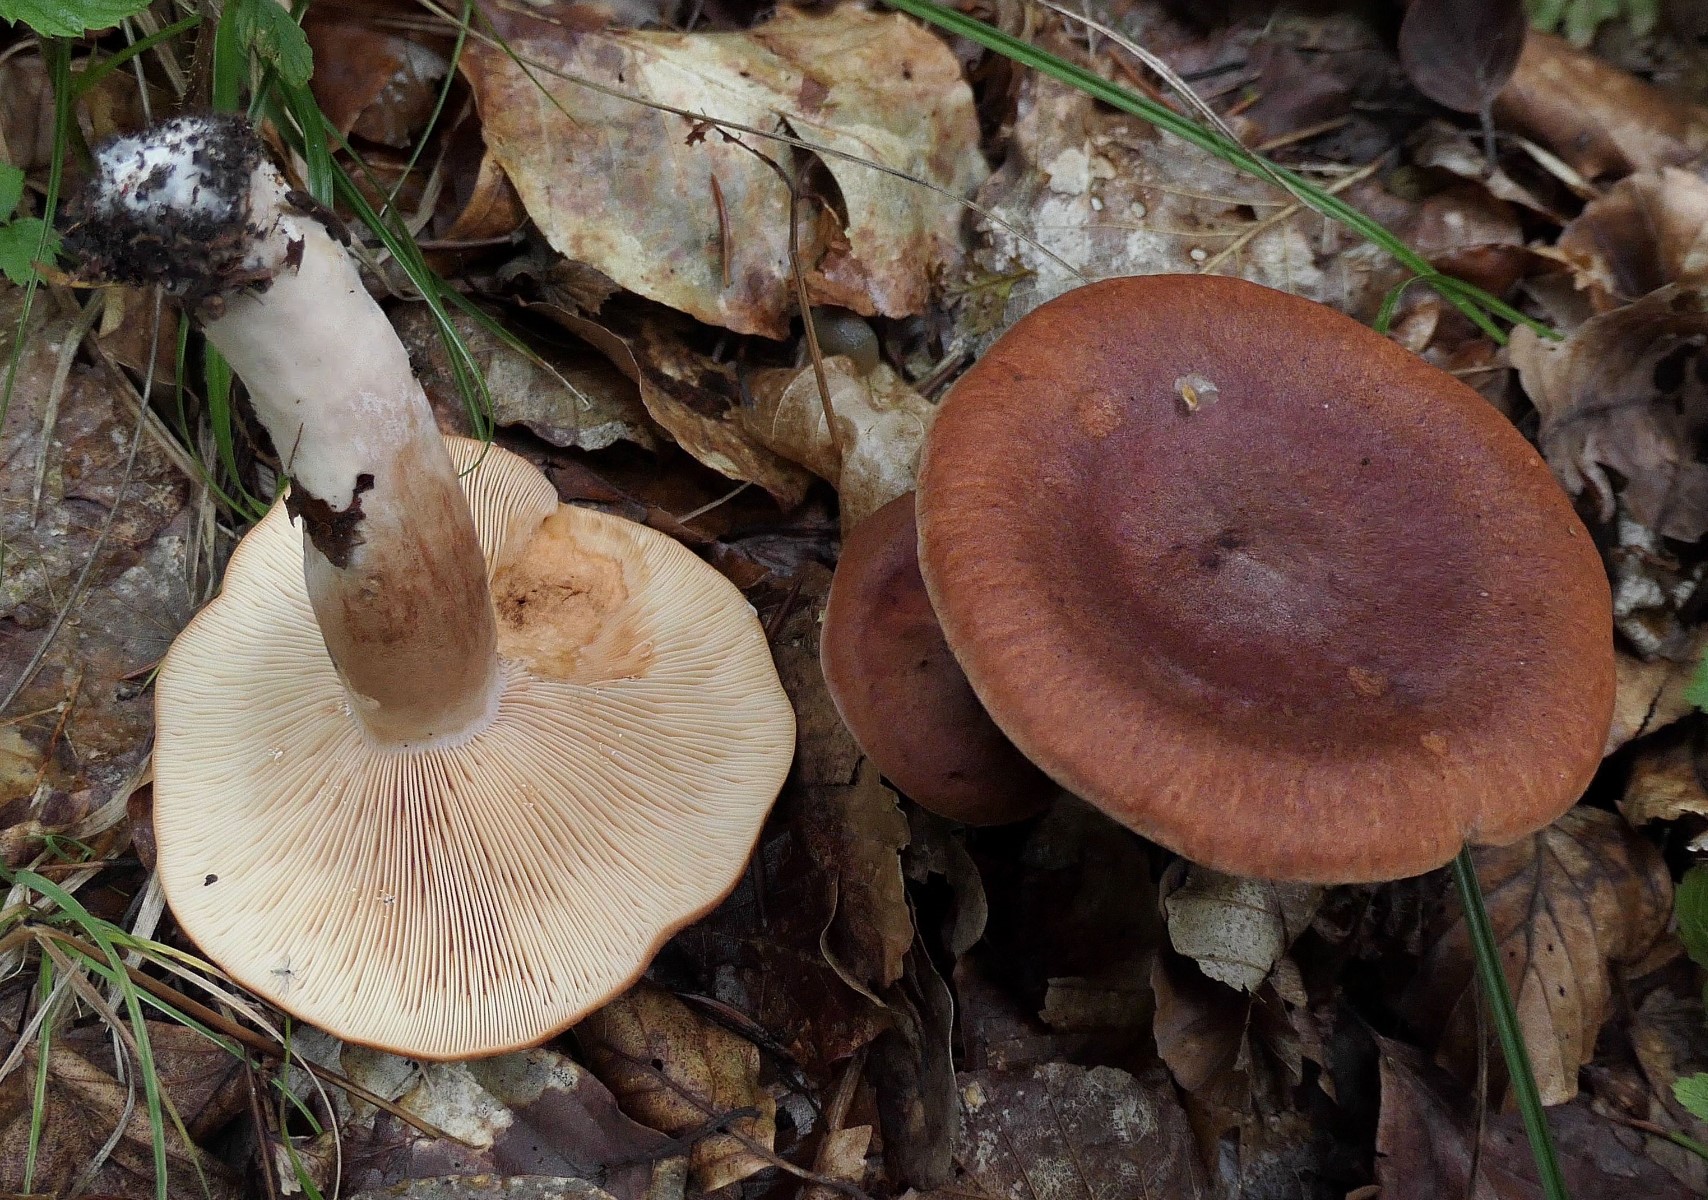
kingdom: Fungi
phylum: Basidiomycota
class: Agaricomycetes
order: Russulales
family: Russulaceae
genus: Lactarius
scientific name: Lactarius rufus
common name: rødbrun mælkehat
